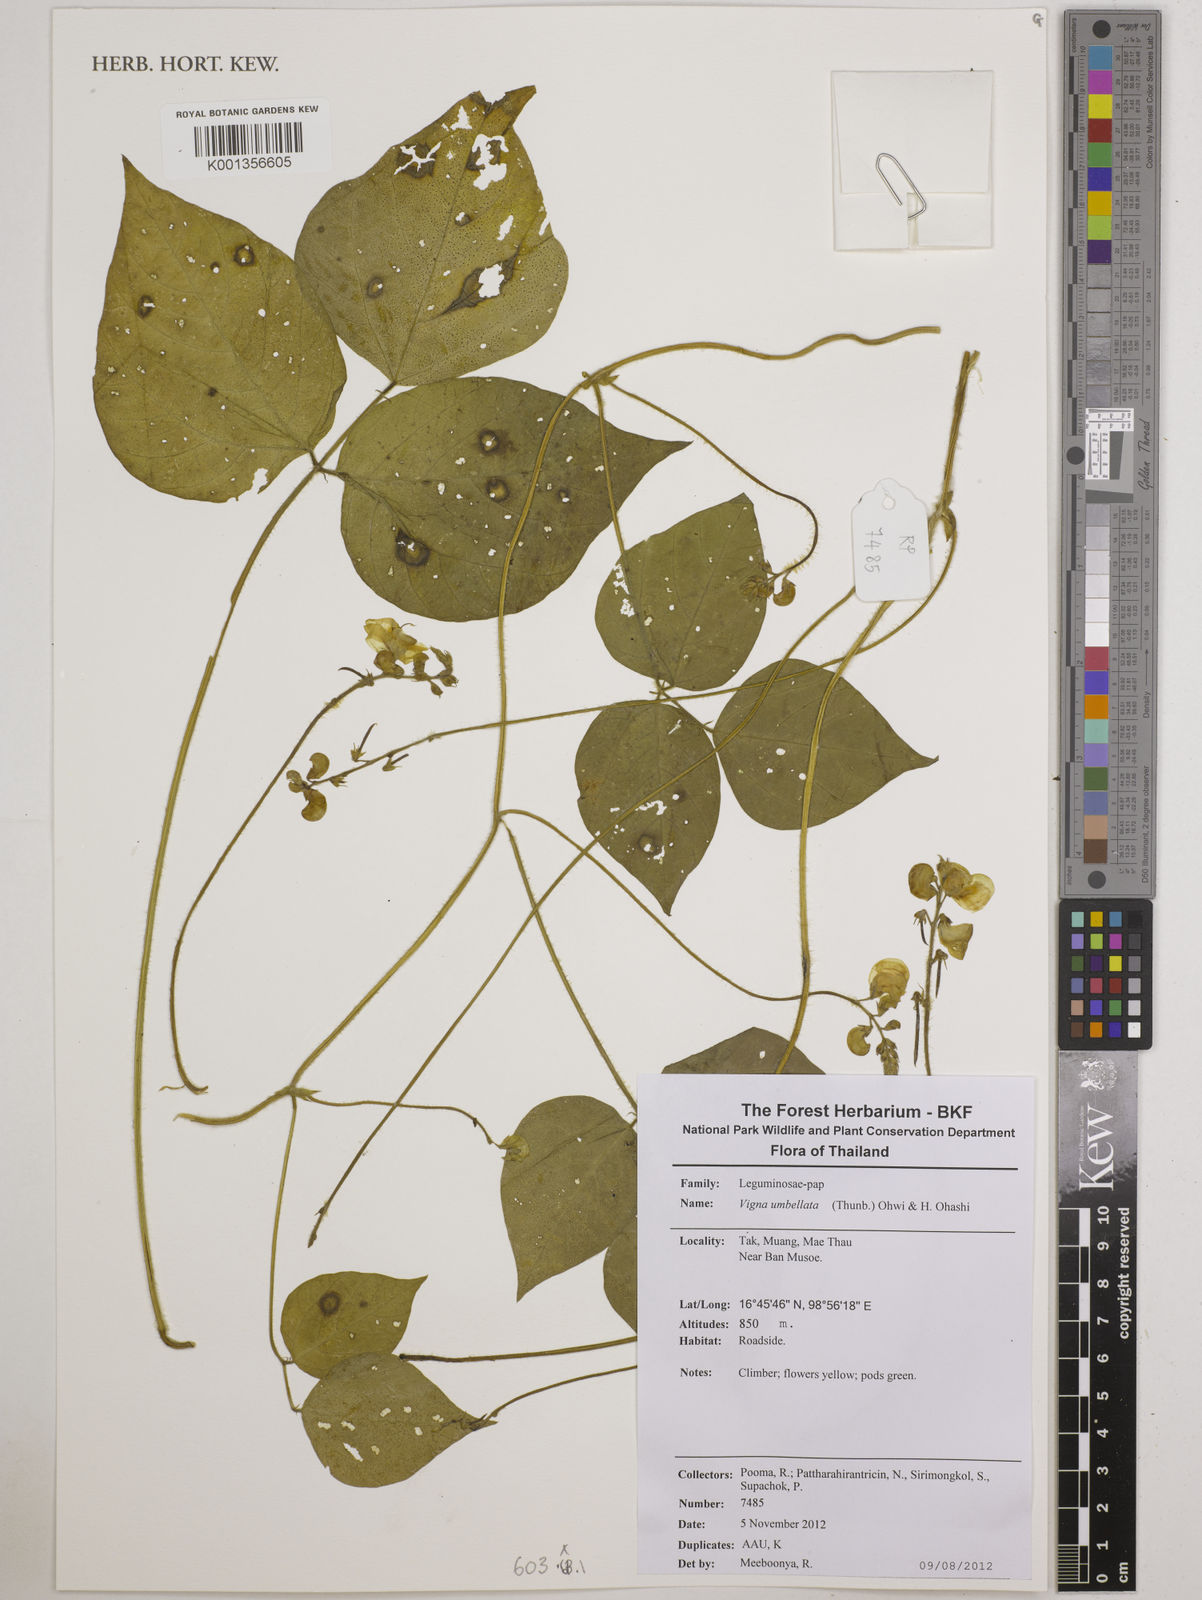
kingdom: Plantae
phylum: Tracheophyta
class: Magnoliopsida
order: Fabales
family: Fabaceae
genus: Vigna
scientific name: Vigna umbellata
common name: Oriental-bean
